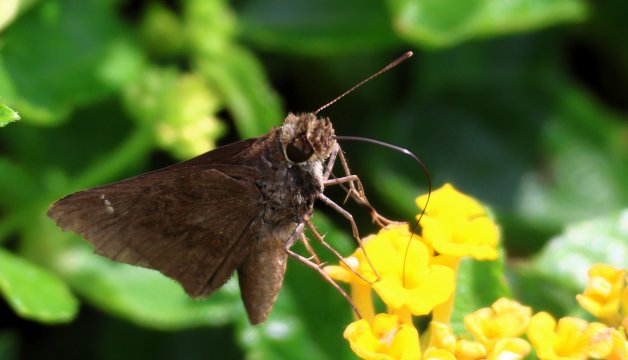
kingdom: Animalia
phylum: Arthropoda
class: Insecta
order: Lepidoptera
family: Hesperiidae
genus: Lerema
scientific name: Lerema accius
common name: Clouded Skipper
